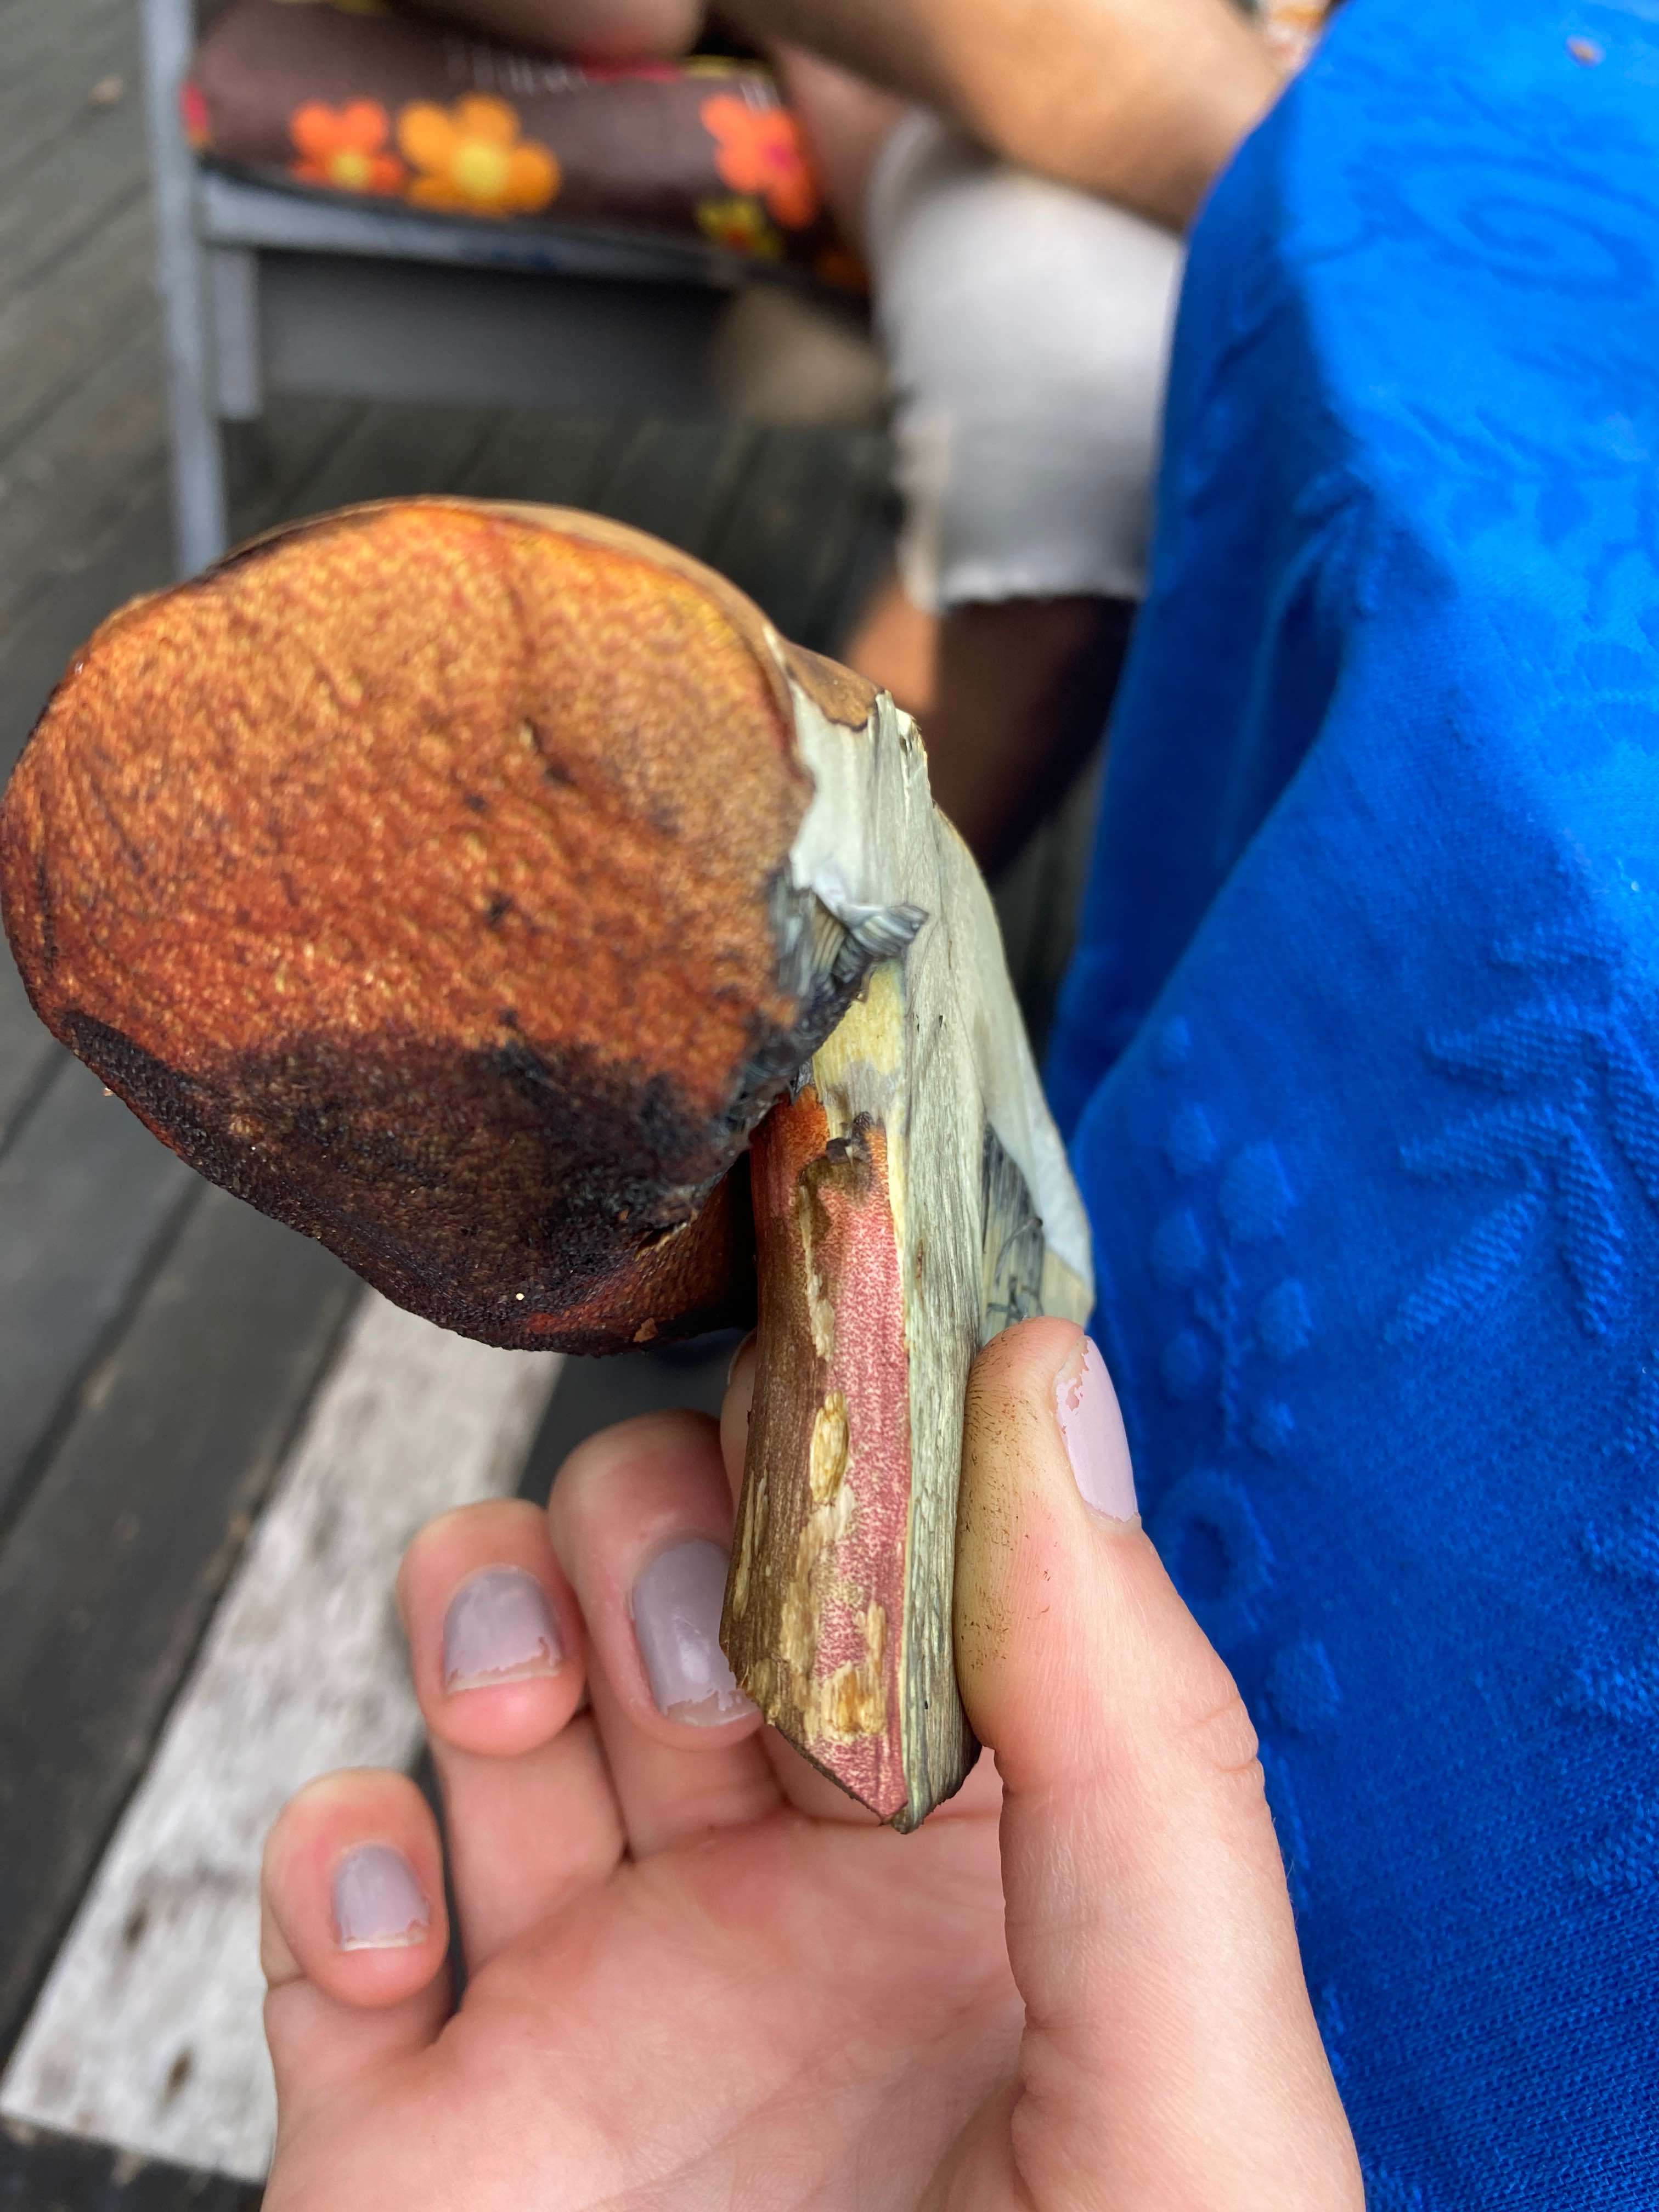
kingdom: Fungi
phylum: Basidiomycota
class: Agaricomycetes
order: Boletales
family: Boletaceae
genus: Neoboletus
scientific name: Neoboletus erythropus
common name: punktstokket indigorørhat
